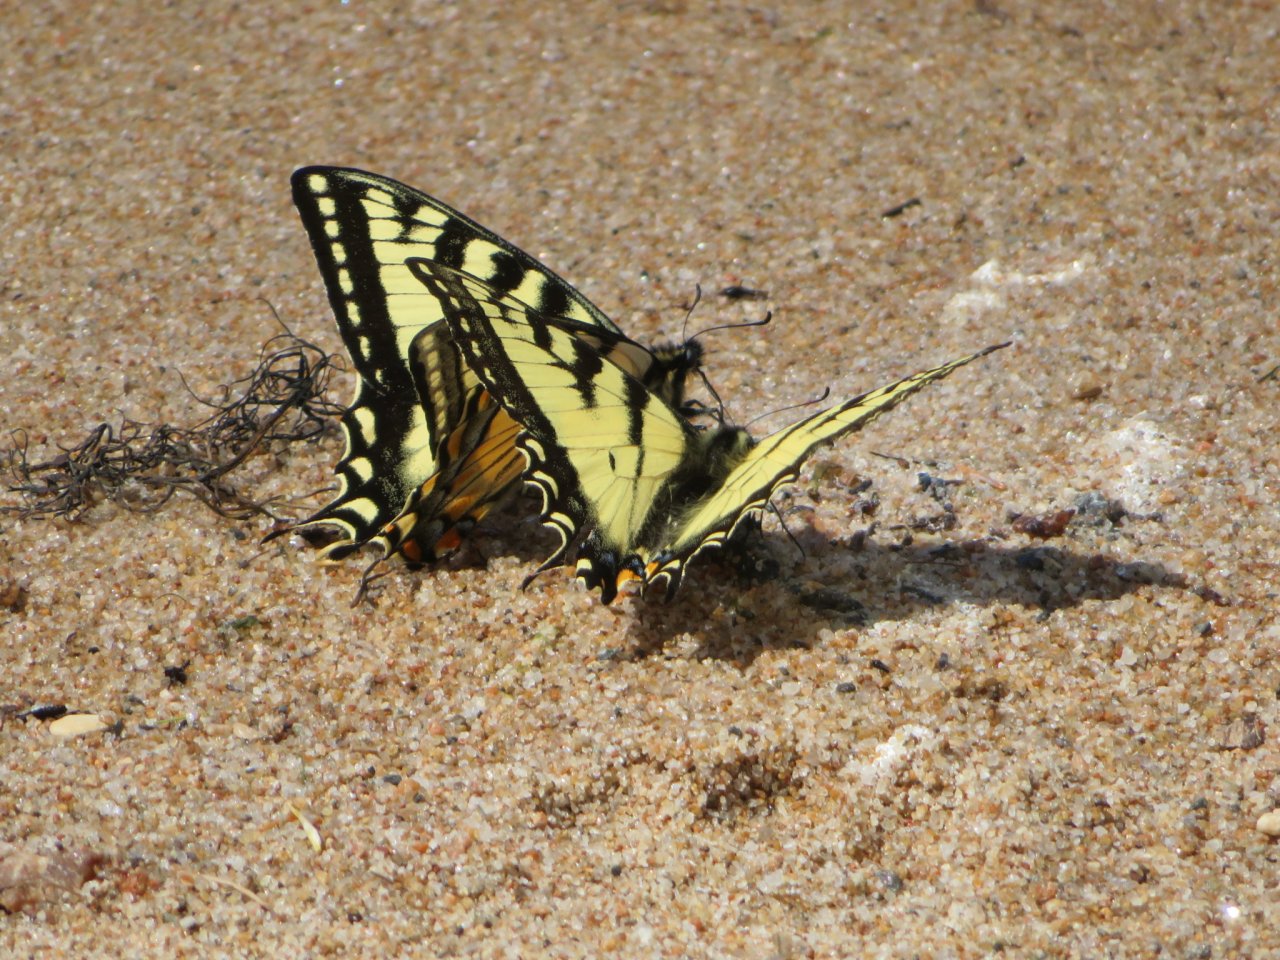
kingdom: Animalia
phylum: Arthropoda
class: Insecta
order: Lepidoptera
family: Papilionidae
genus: Pterourus
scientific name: Pterourus canadensis
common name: Canadian Tiger Swallowtail
